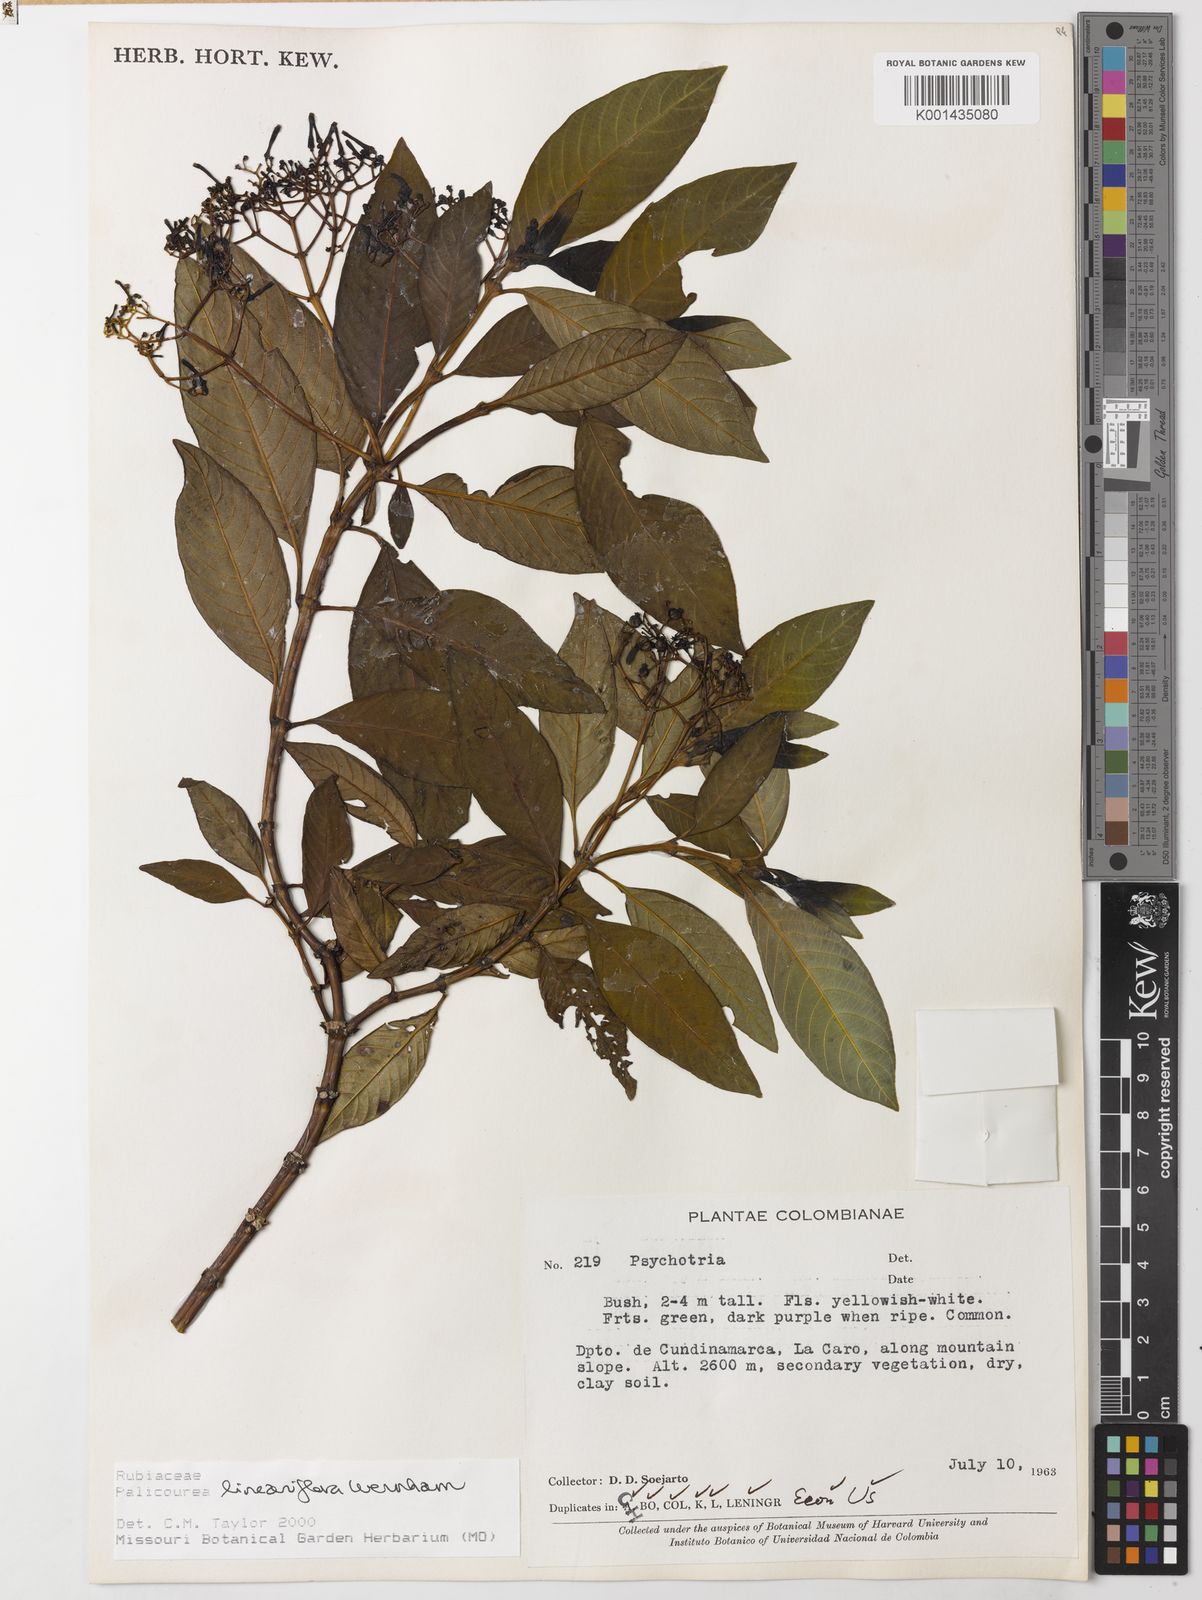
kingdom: Plantae
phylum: Tracheophyta
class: Magnoliopsida
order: Gentianales
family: Rubiaceae
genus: Palicourea
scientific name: Palicourea lineariflora
